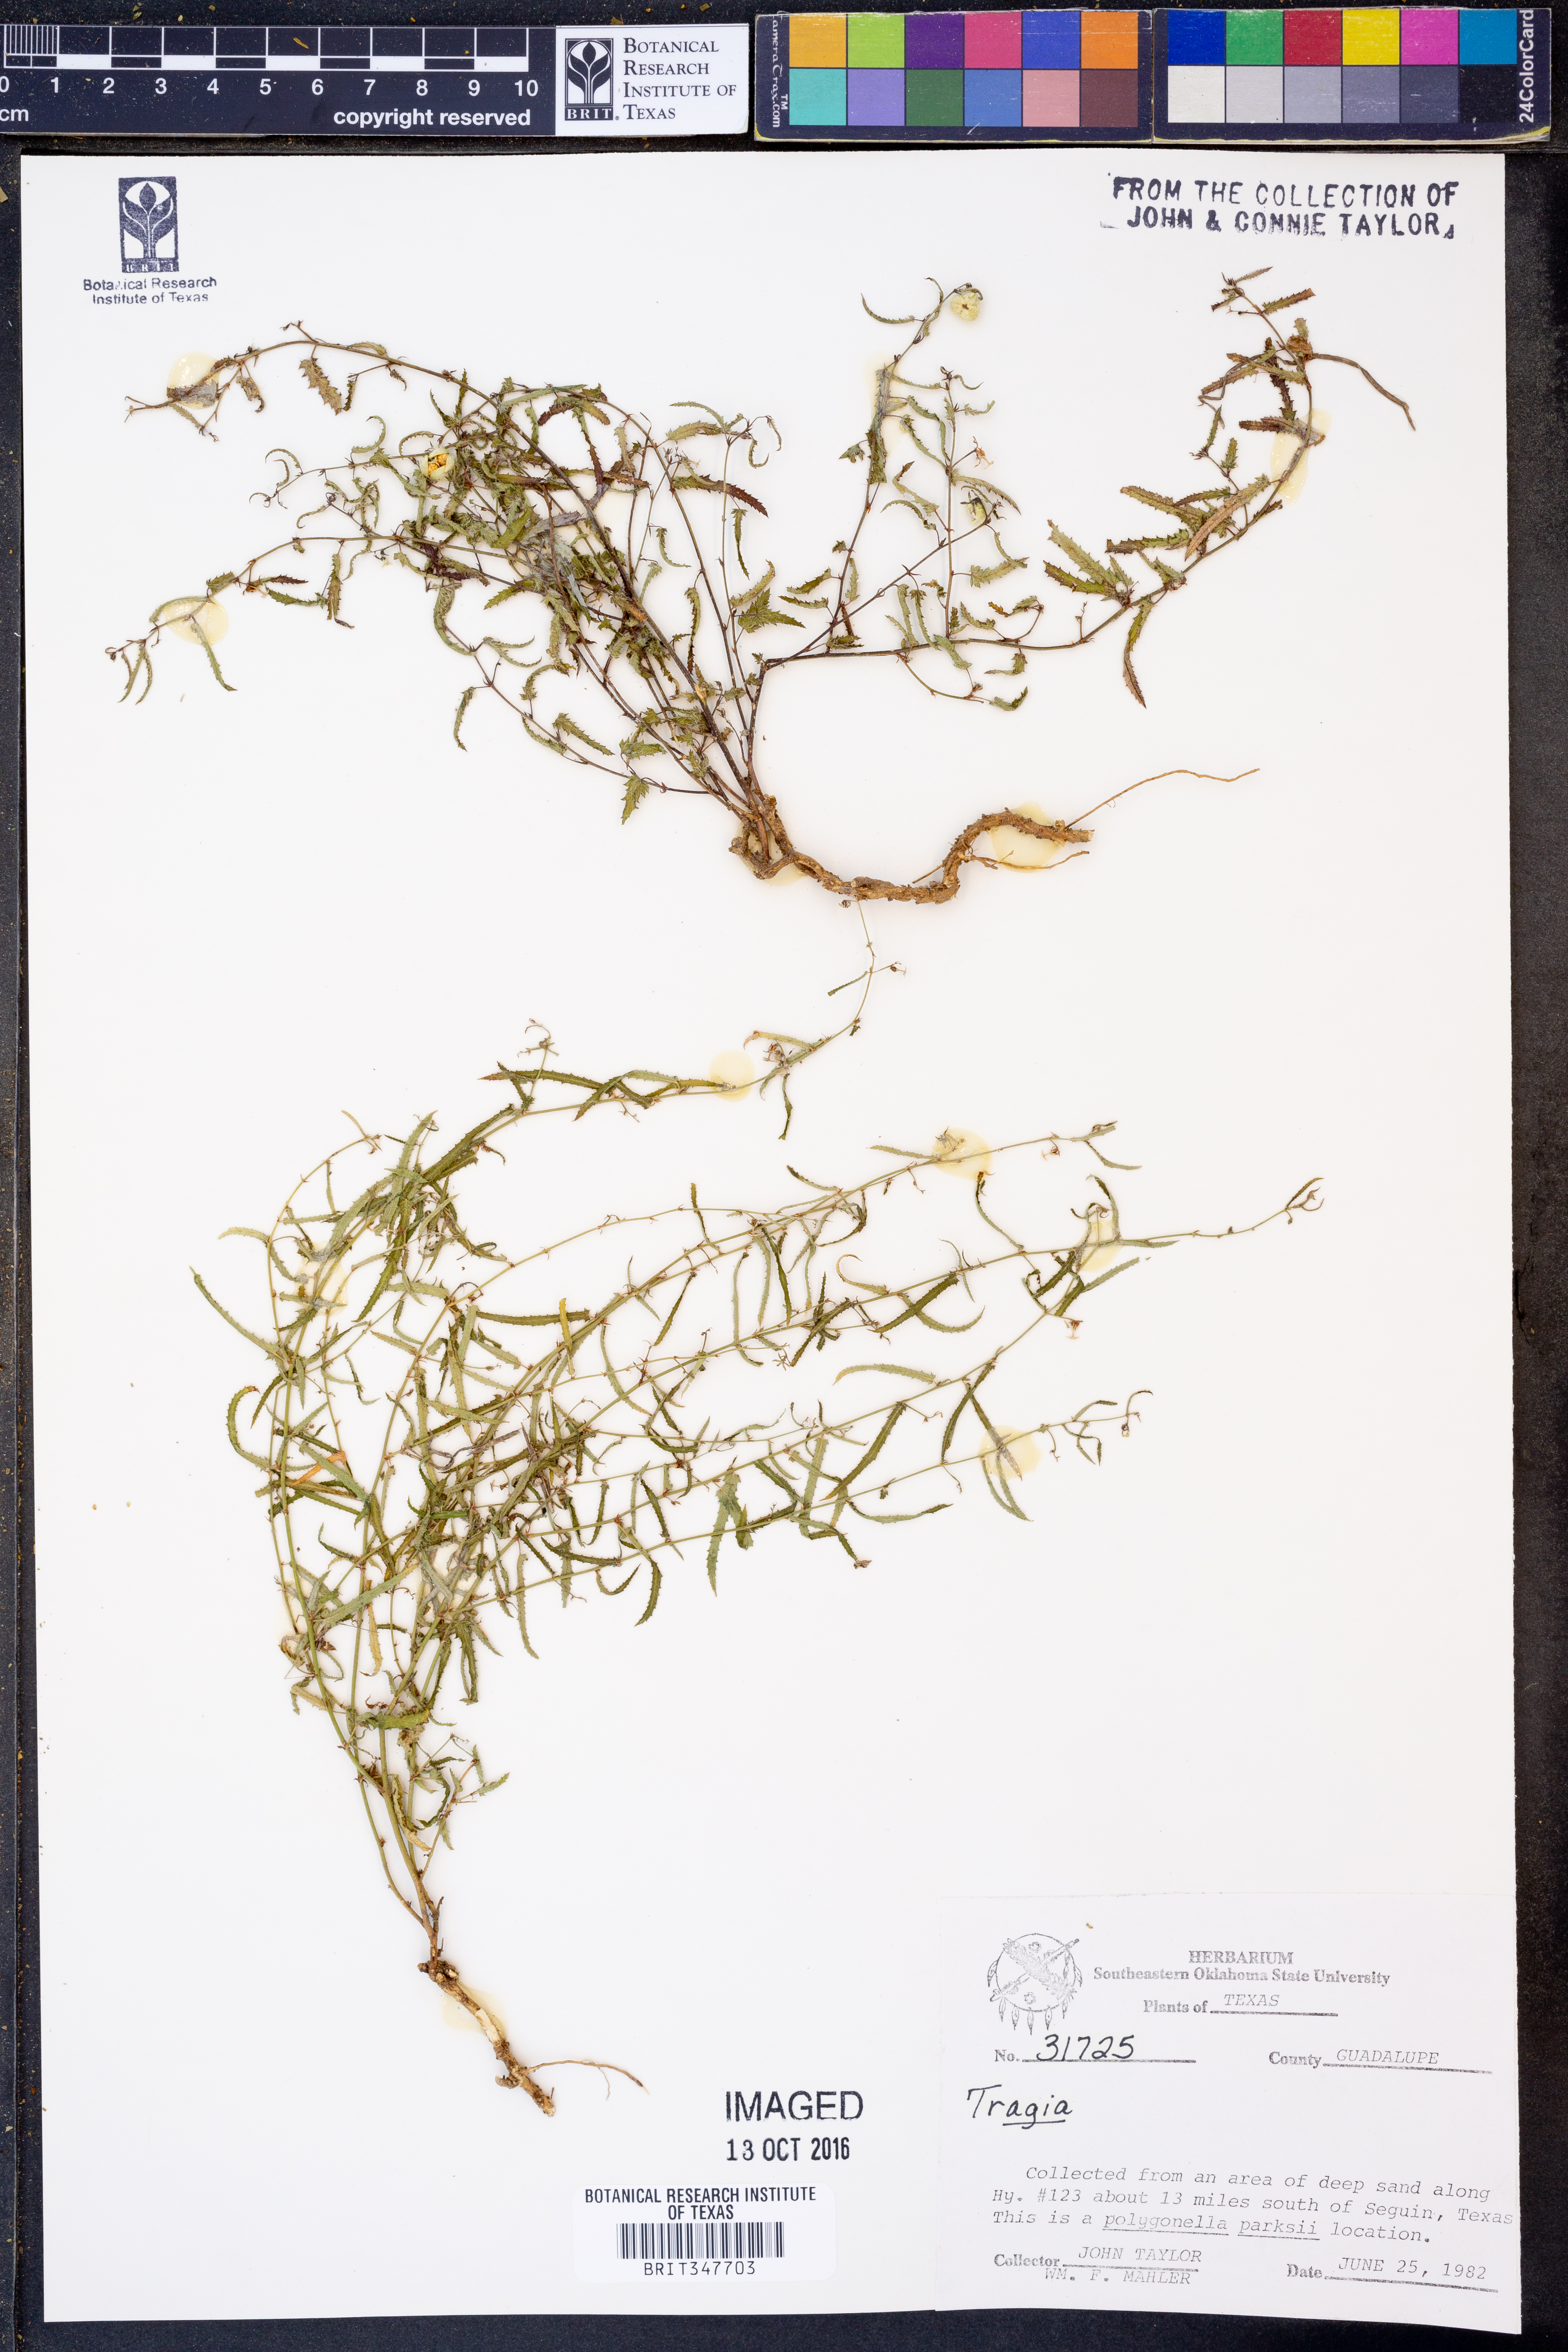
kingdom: Plantae
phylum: Tracheophyta
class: Magnoliopsida
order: Malpighiales
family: Euphorbiaceae
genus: Tragia
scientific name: Tragia
